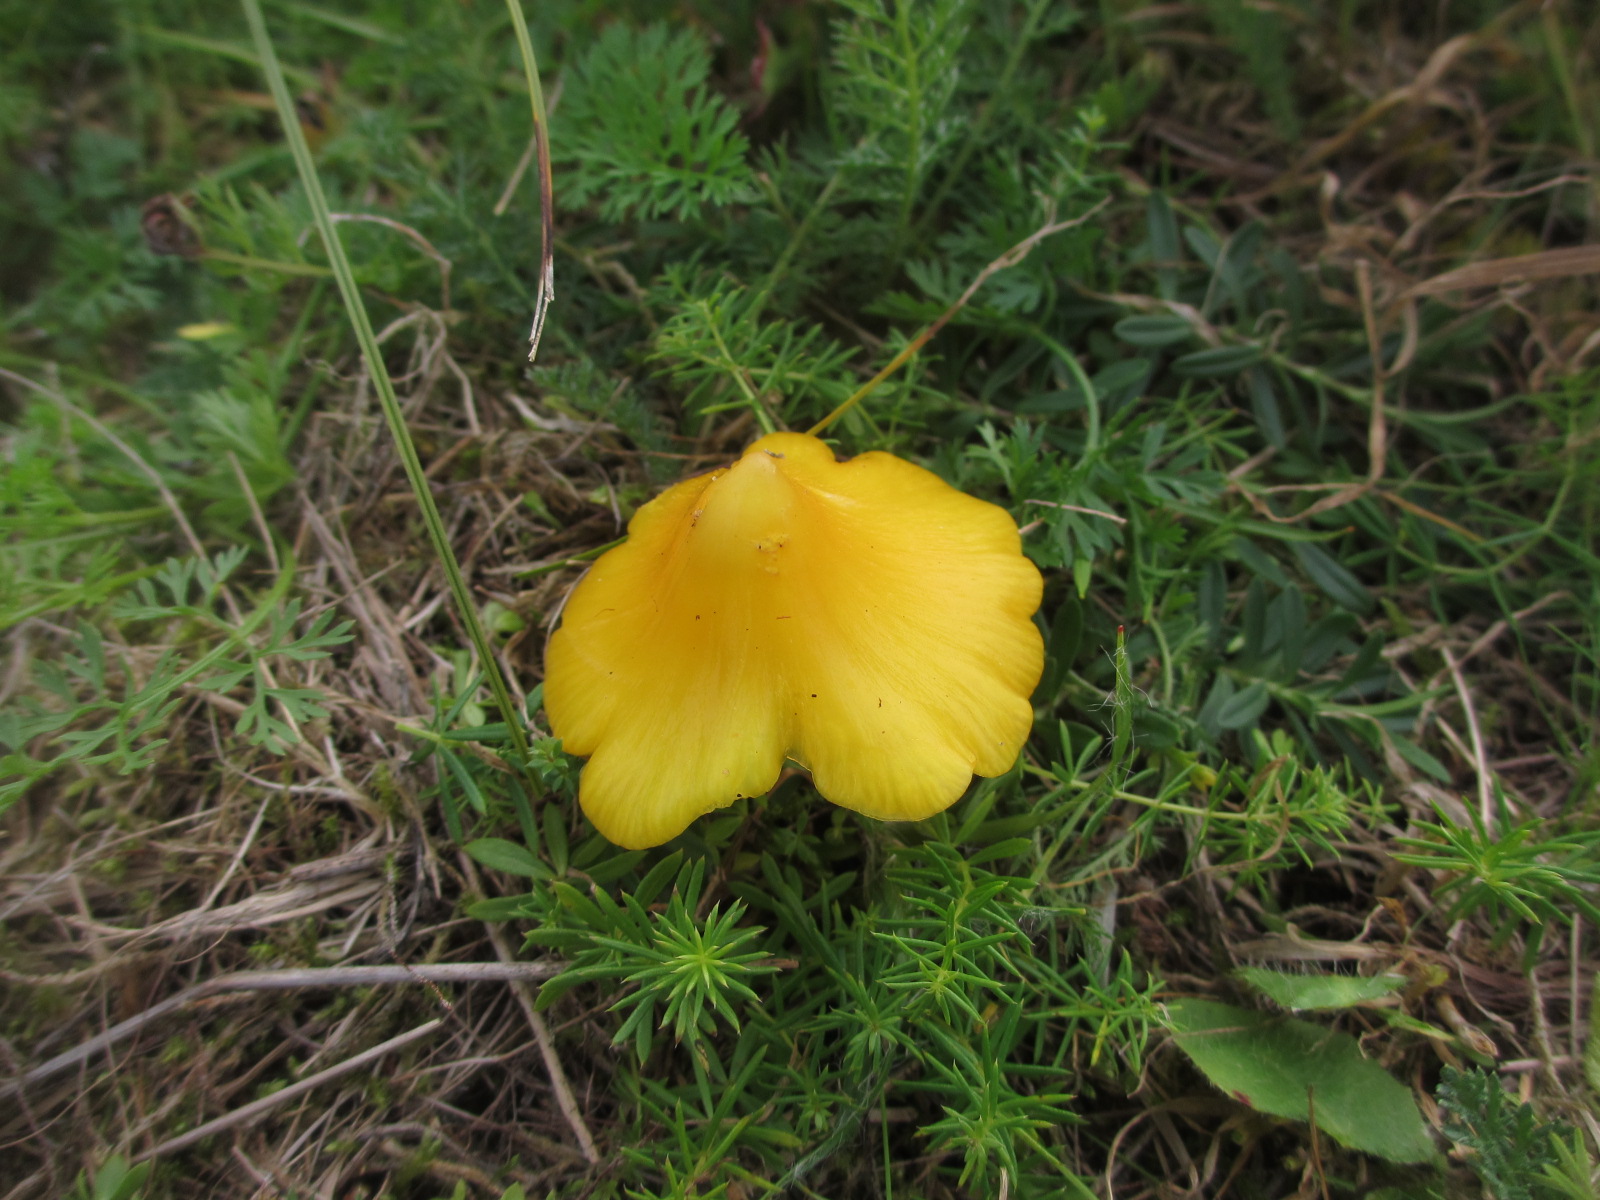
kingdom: Fungi
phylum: Basidiomycota
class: Agaricomycetes
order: Agaricales
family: Hygrophoraceae
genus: Hygrocybe
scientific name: Hygrocybe
